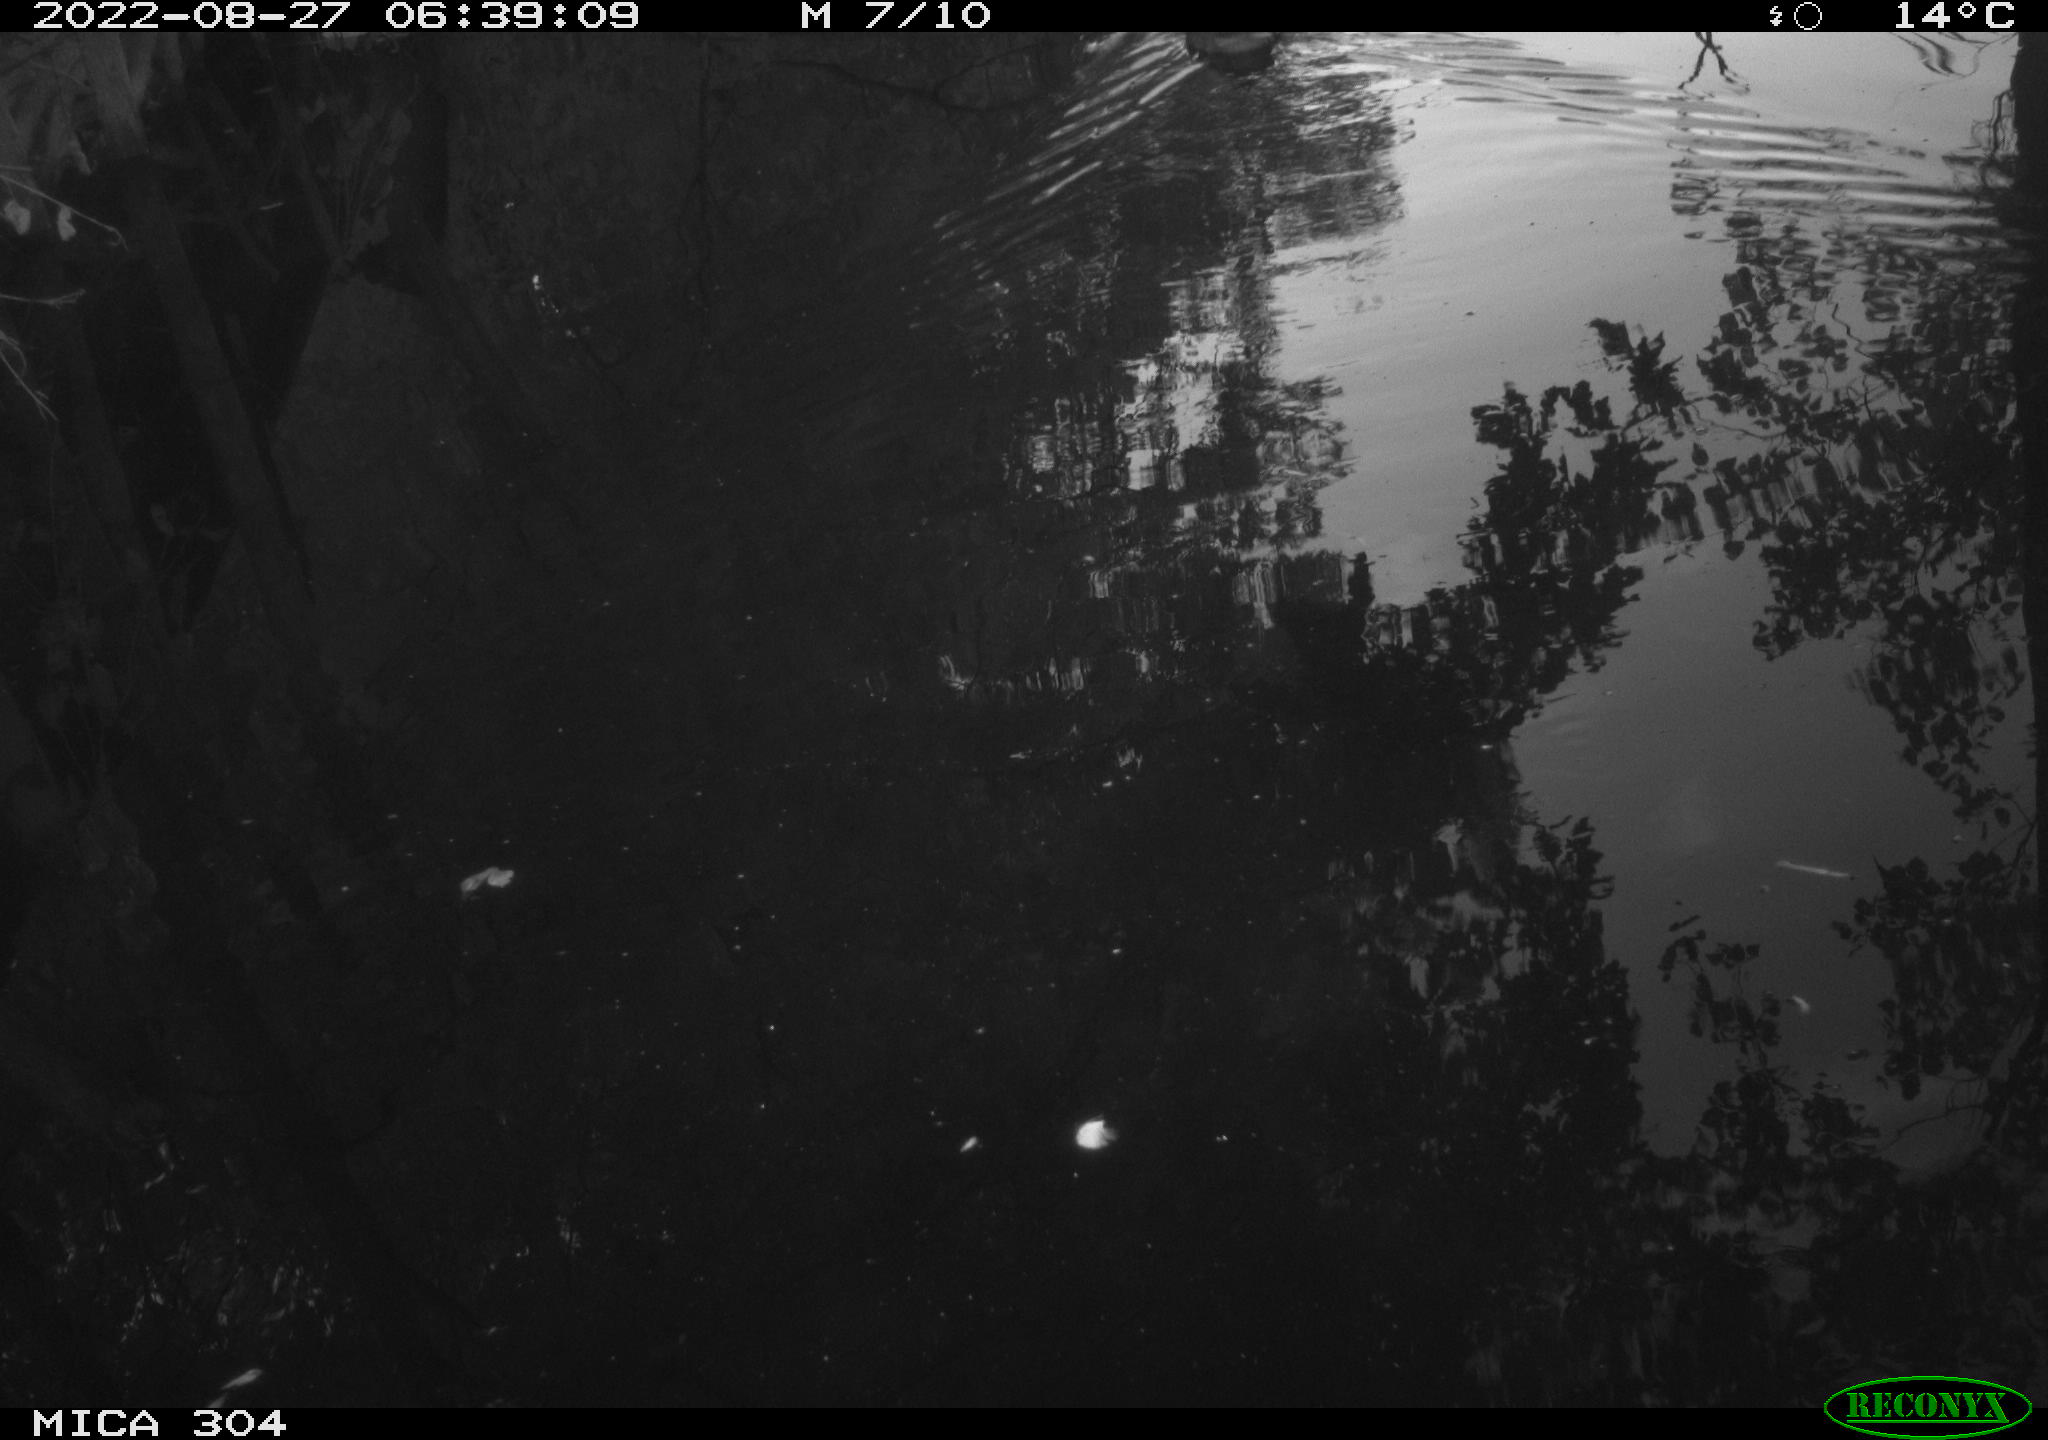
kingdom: Animalia
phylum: Chordata
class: Aves
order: Anseriformes
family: Anatidae
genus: Anas
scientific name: Anas platyrhynchos
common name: Mallard
